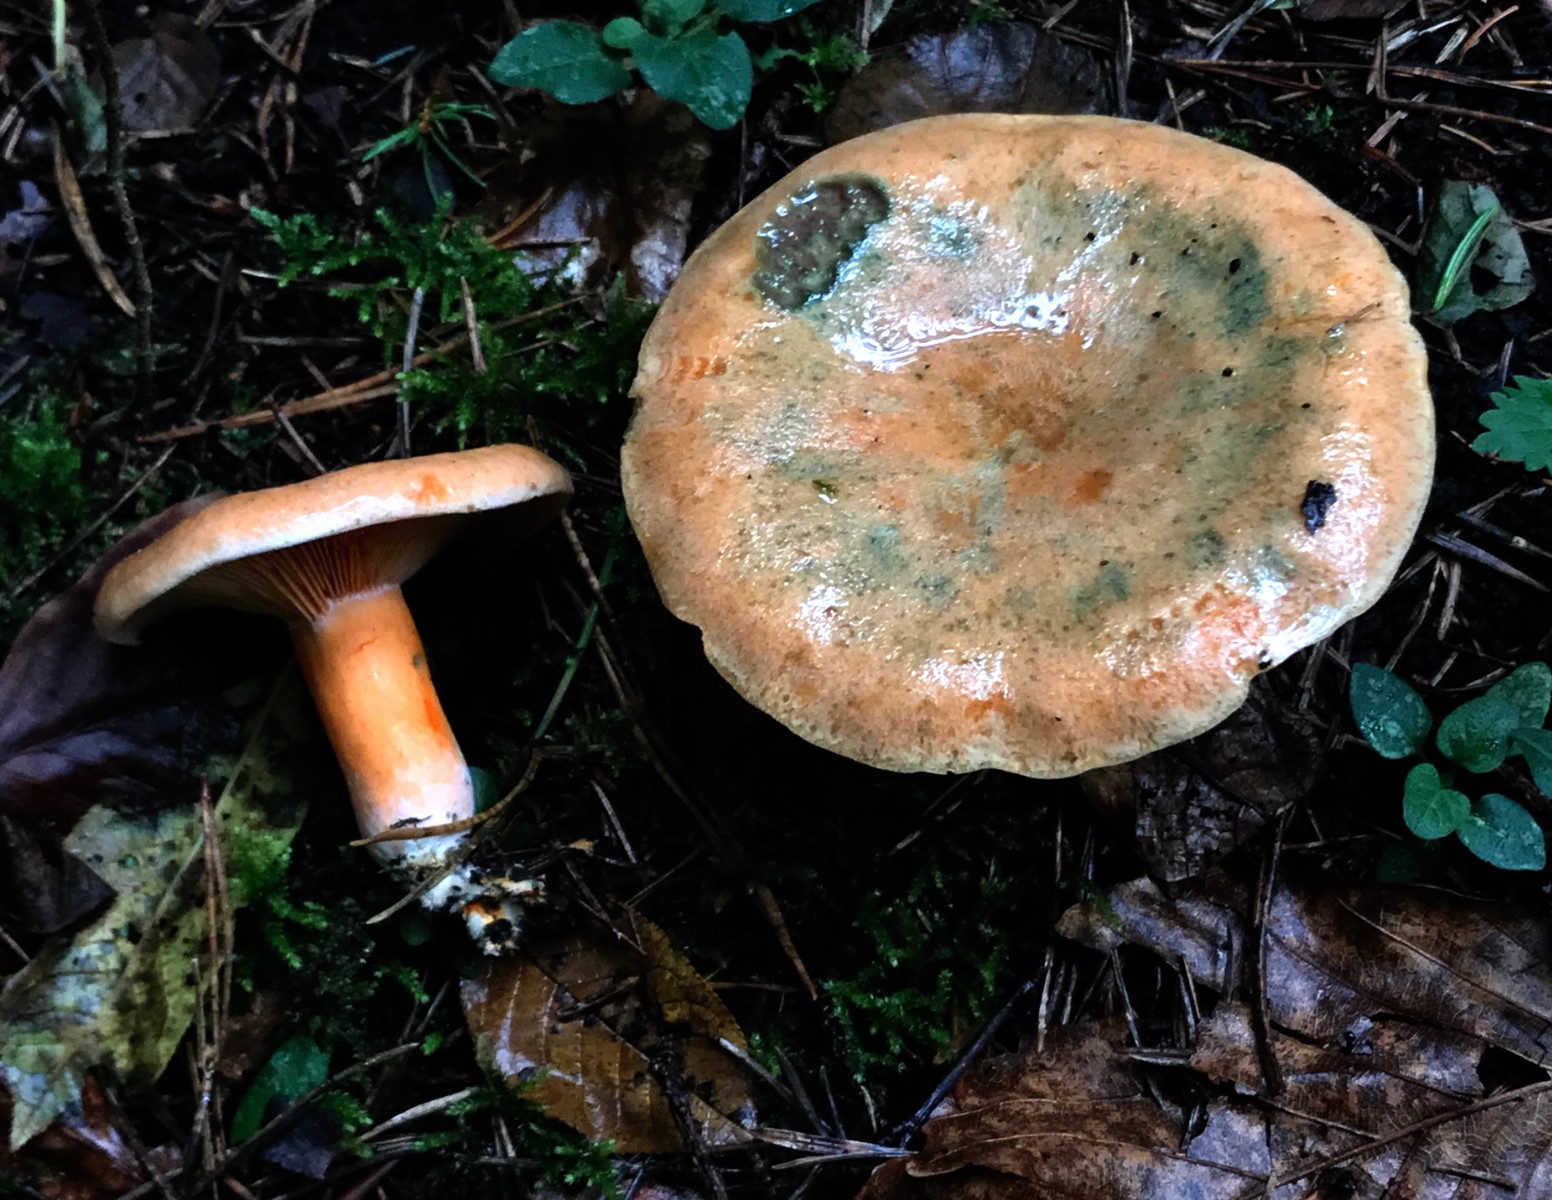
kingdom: Fungi
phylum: Basidiomycota
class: Agaricomycetes
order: Russulales
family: Russulaceae
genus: Lactarius
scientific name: Lactarius deterrimus
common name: gran-mælkehat
